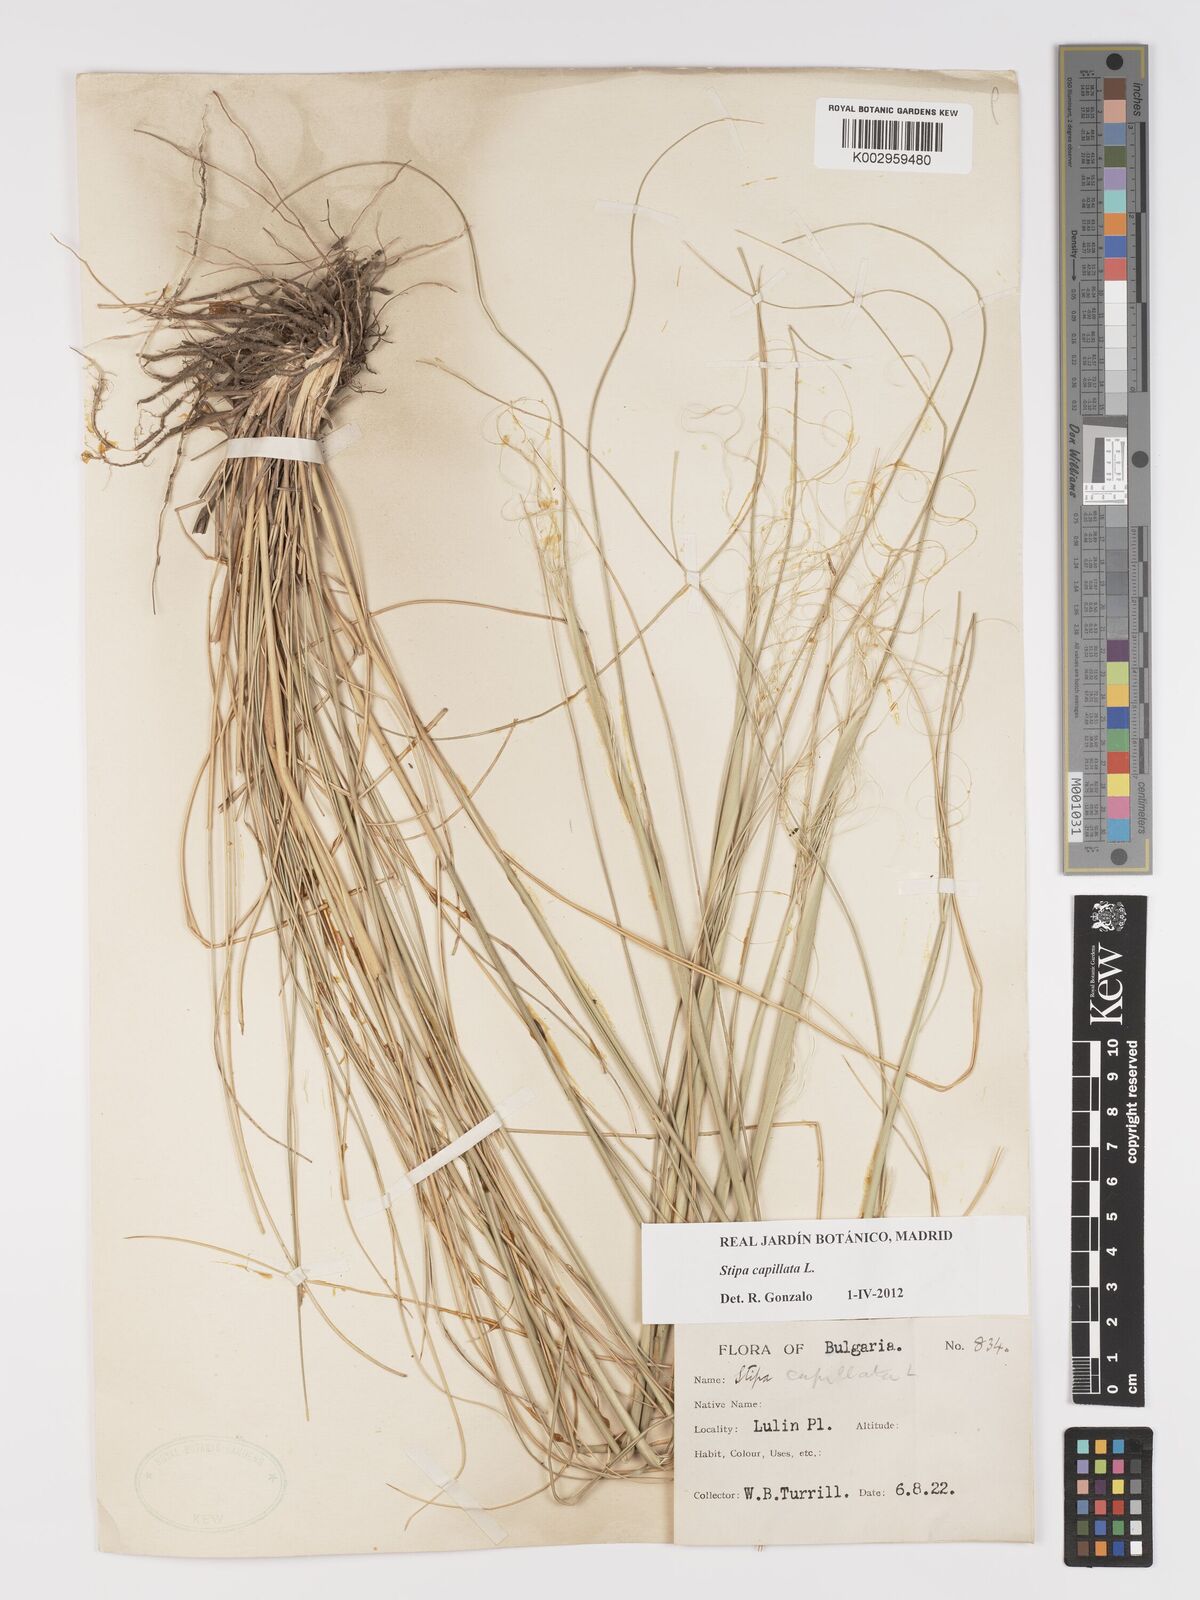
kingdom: Plantae
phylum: Tracheophyta
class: Liliopsida
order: Poales
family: Poaceae
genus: Stipa
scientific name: Stipa capillata
